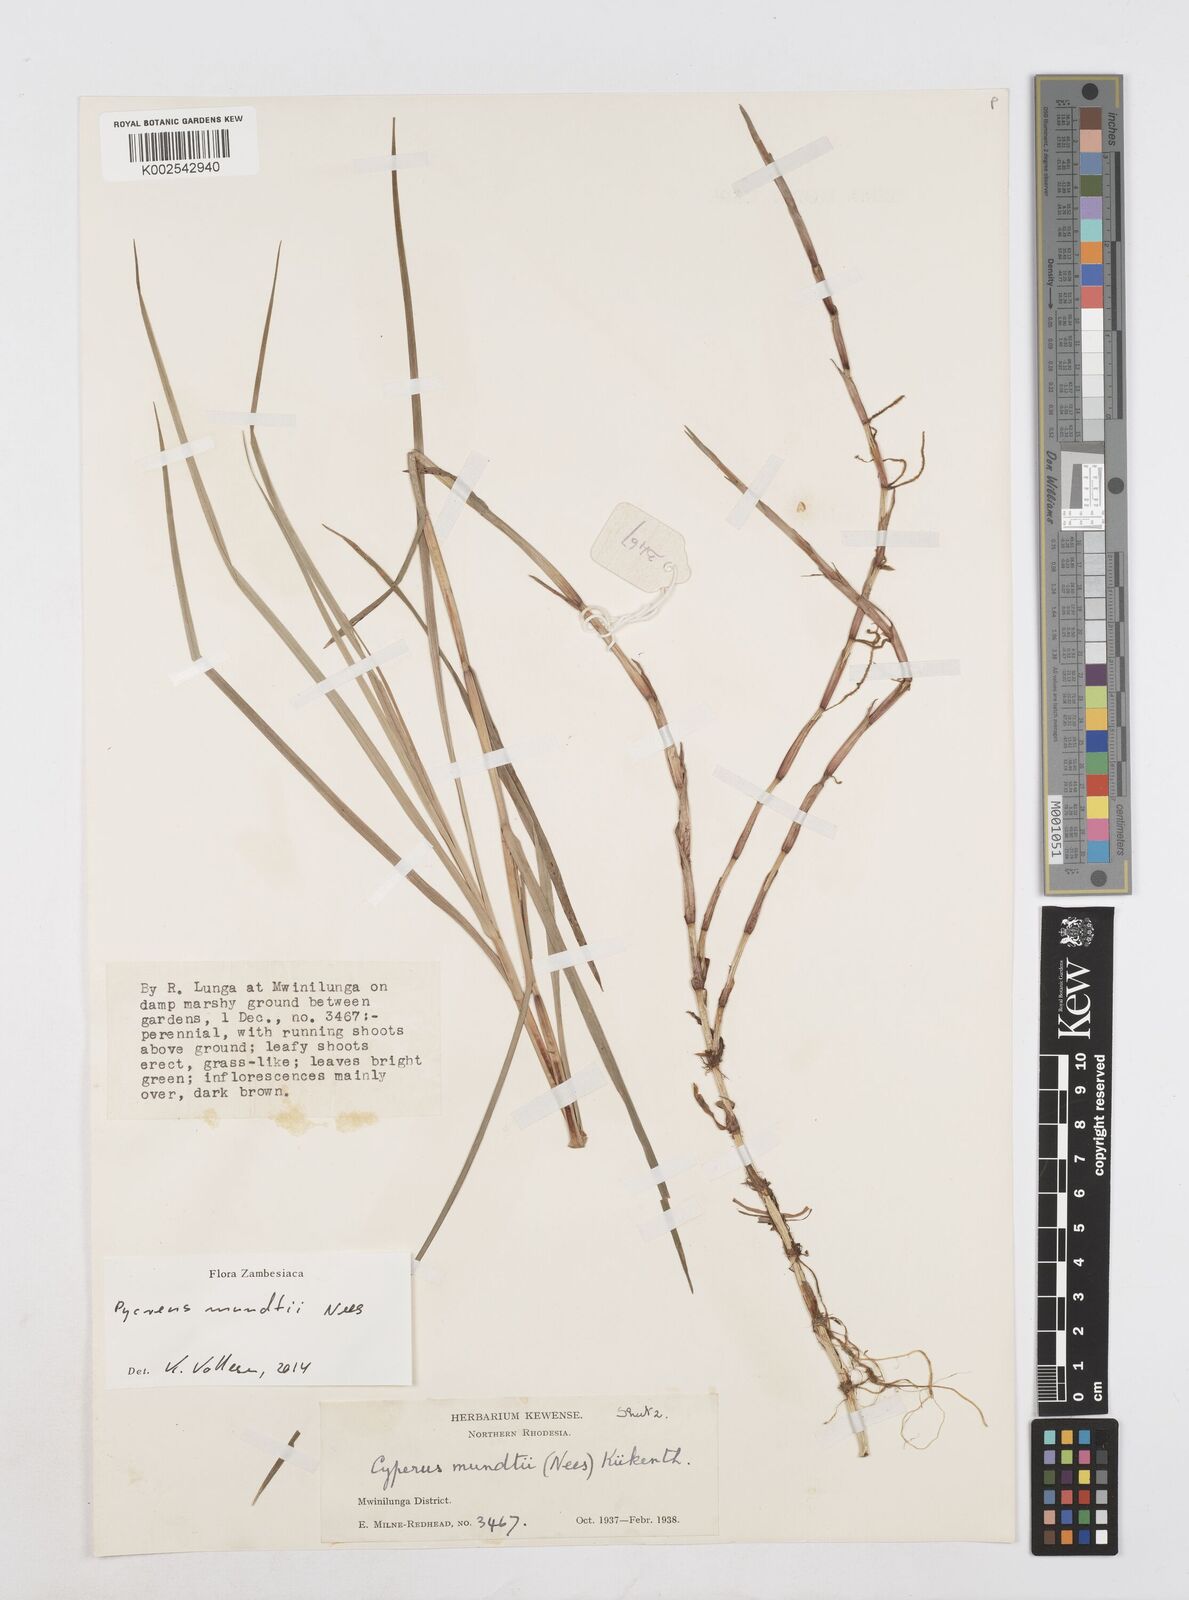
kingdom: Plantae
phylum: Tracheophyta
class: Liliopsida
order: Poales
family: Cyperaceae
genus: Cyperus
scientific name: Cyperus mundii
